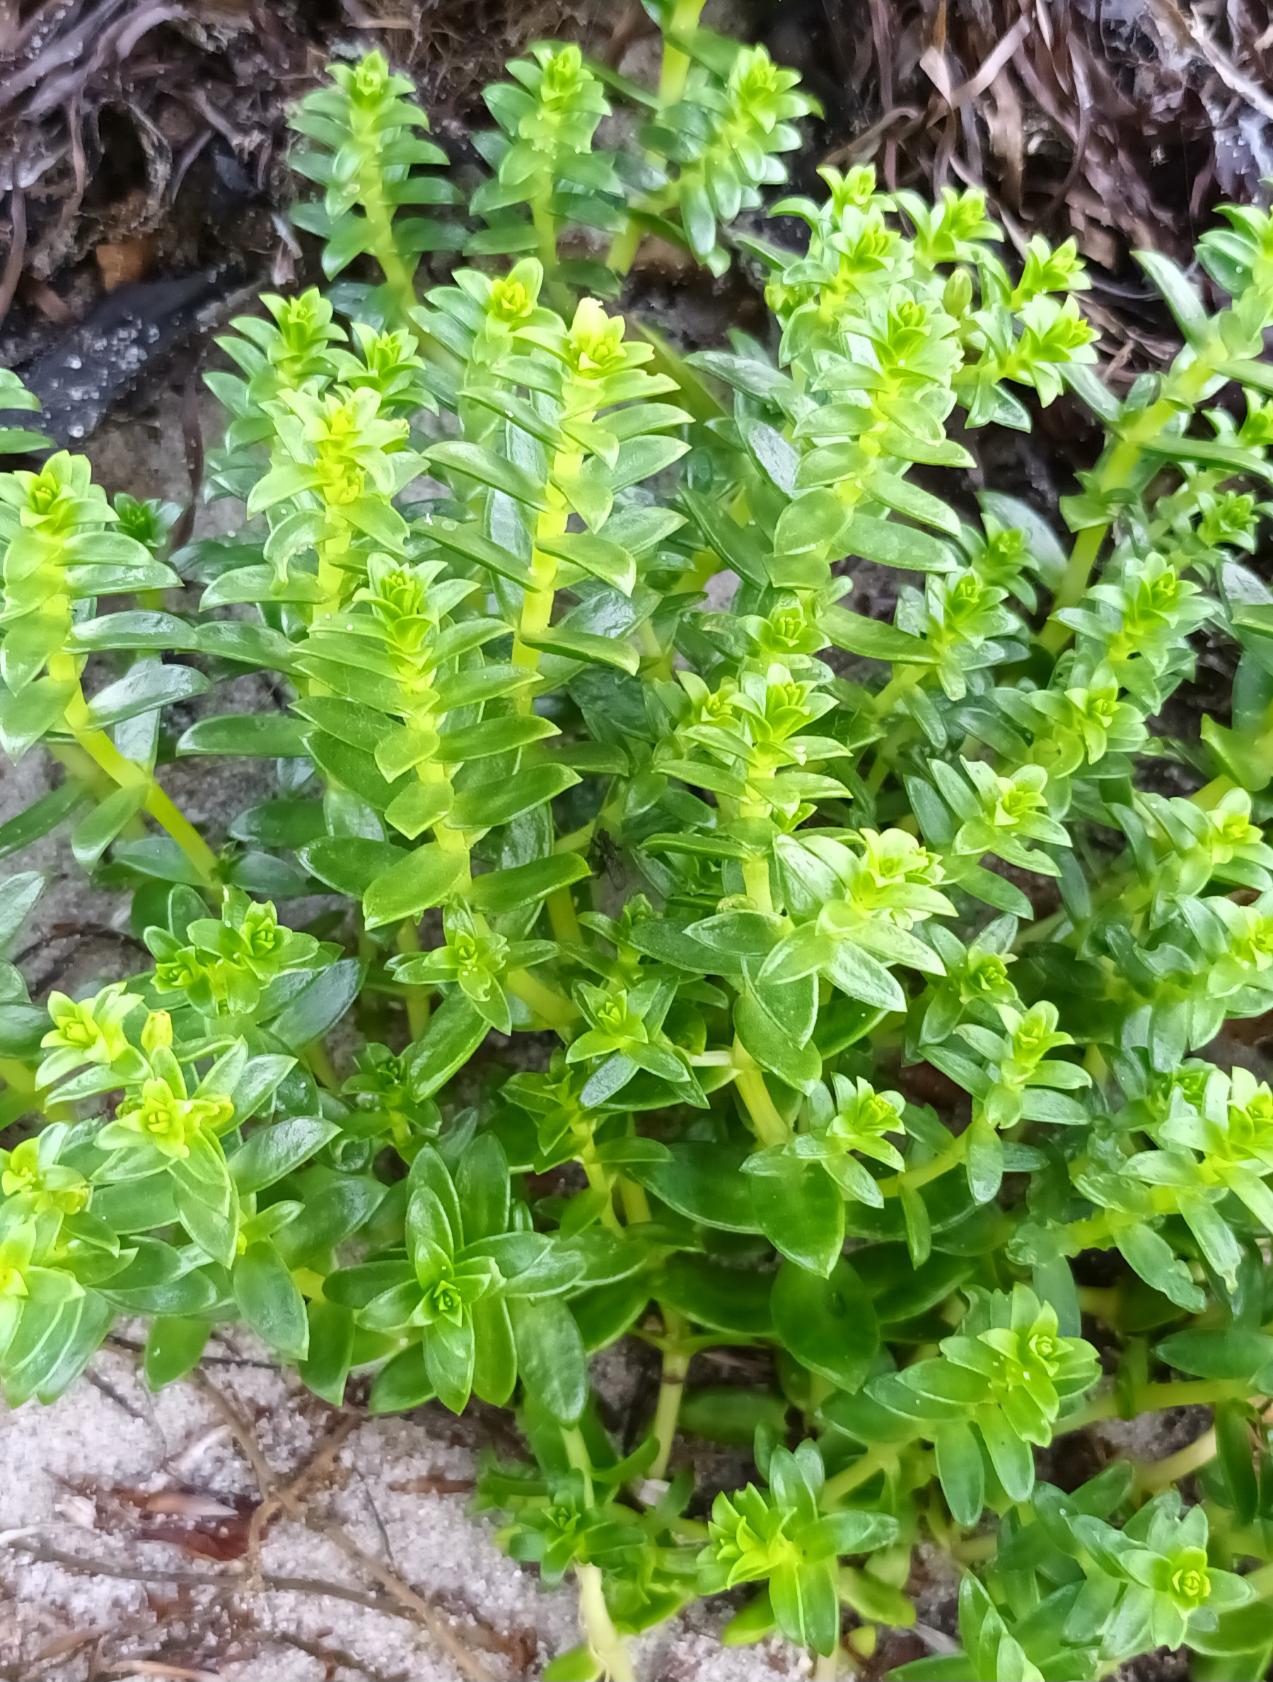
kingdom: Plantae
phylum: Tracheophyta
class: Magnoliopsida
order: Caryophyllales
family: Caryophyllaceae
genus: Honckenya
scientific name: Honckenya peploides
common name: Strandarve
